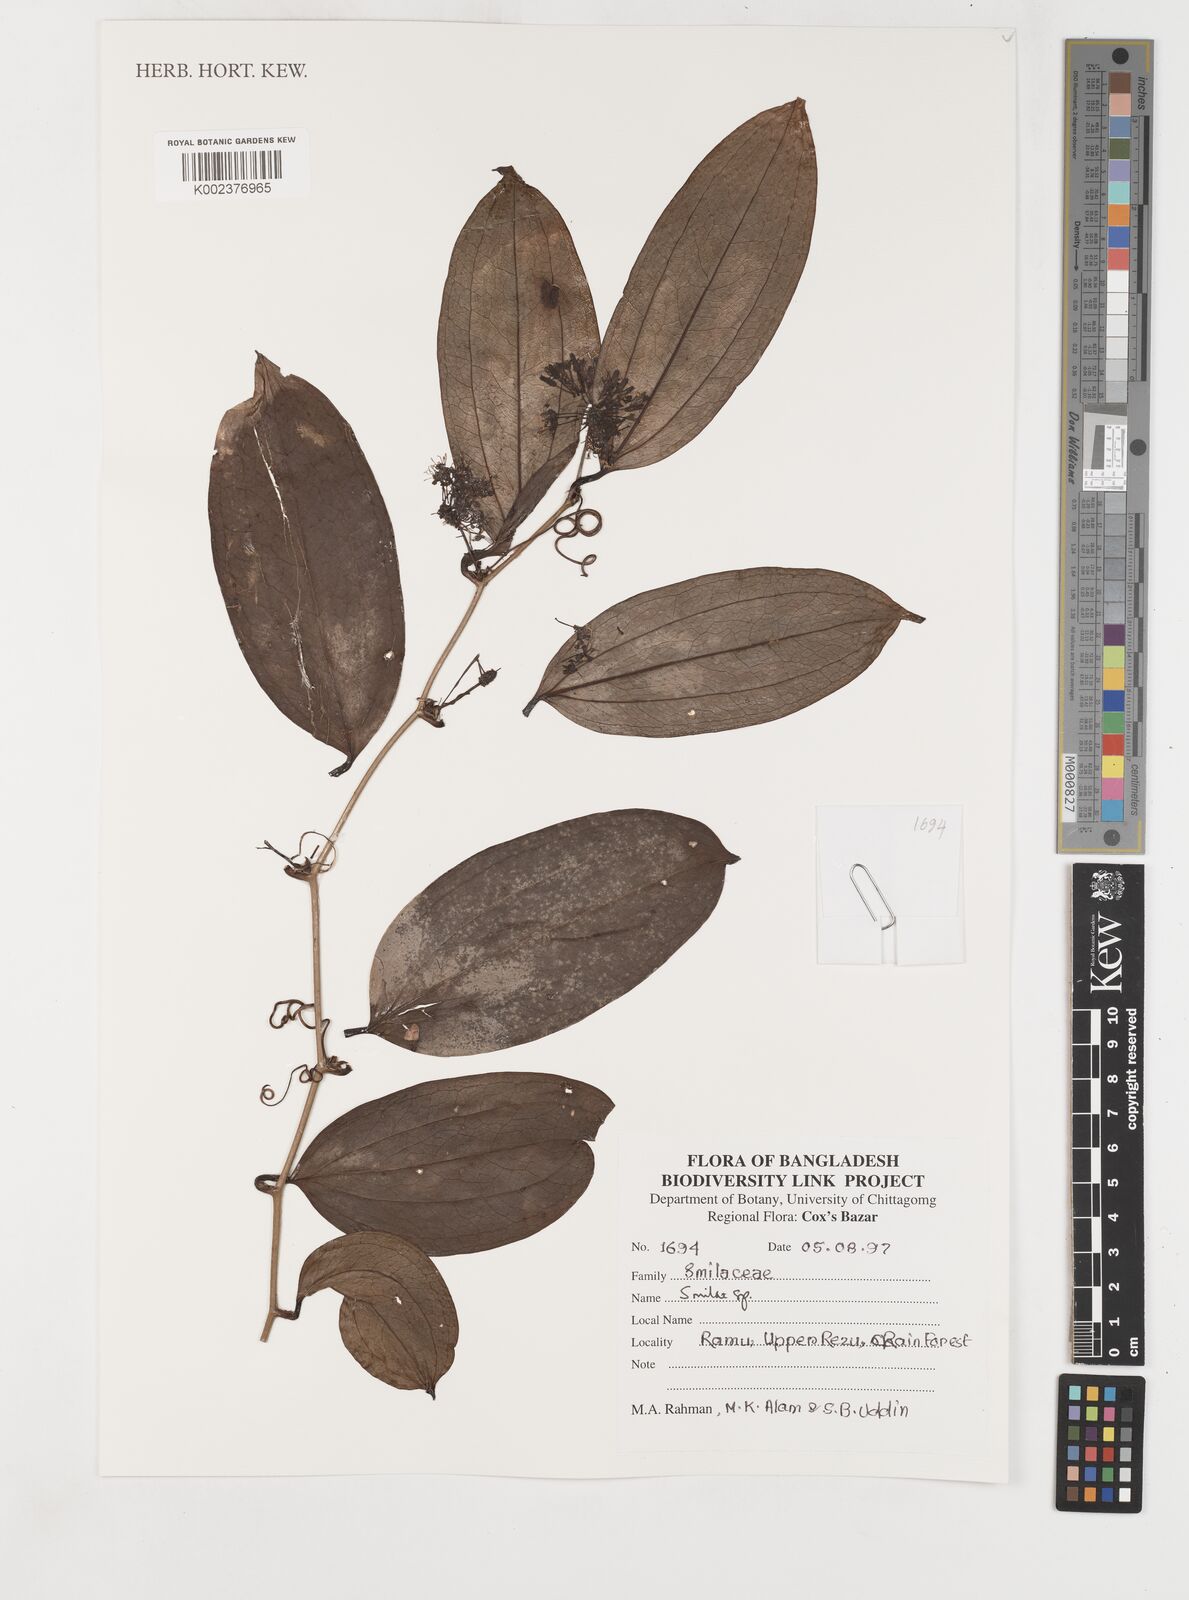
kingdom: Plantae
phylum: Tracheophyta
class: Liliopsida
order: Liliales
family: Smilacaceae
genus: Smilax
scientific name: Smilax
